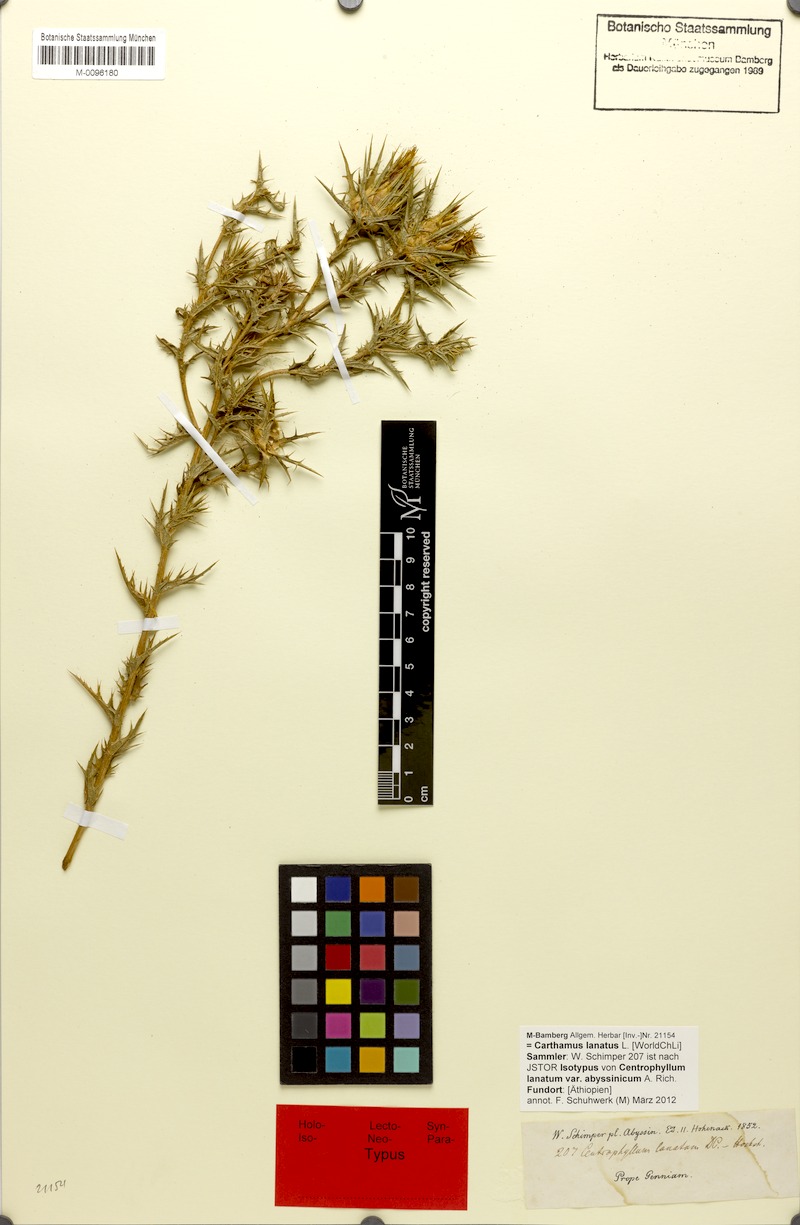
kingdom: Plantae
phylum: Tracheophyta
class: Magnoliopsida
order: Asterales
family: Asteraceae
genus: Carthamus
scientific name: Carthamus lanatus
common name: Downy safflower
